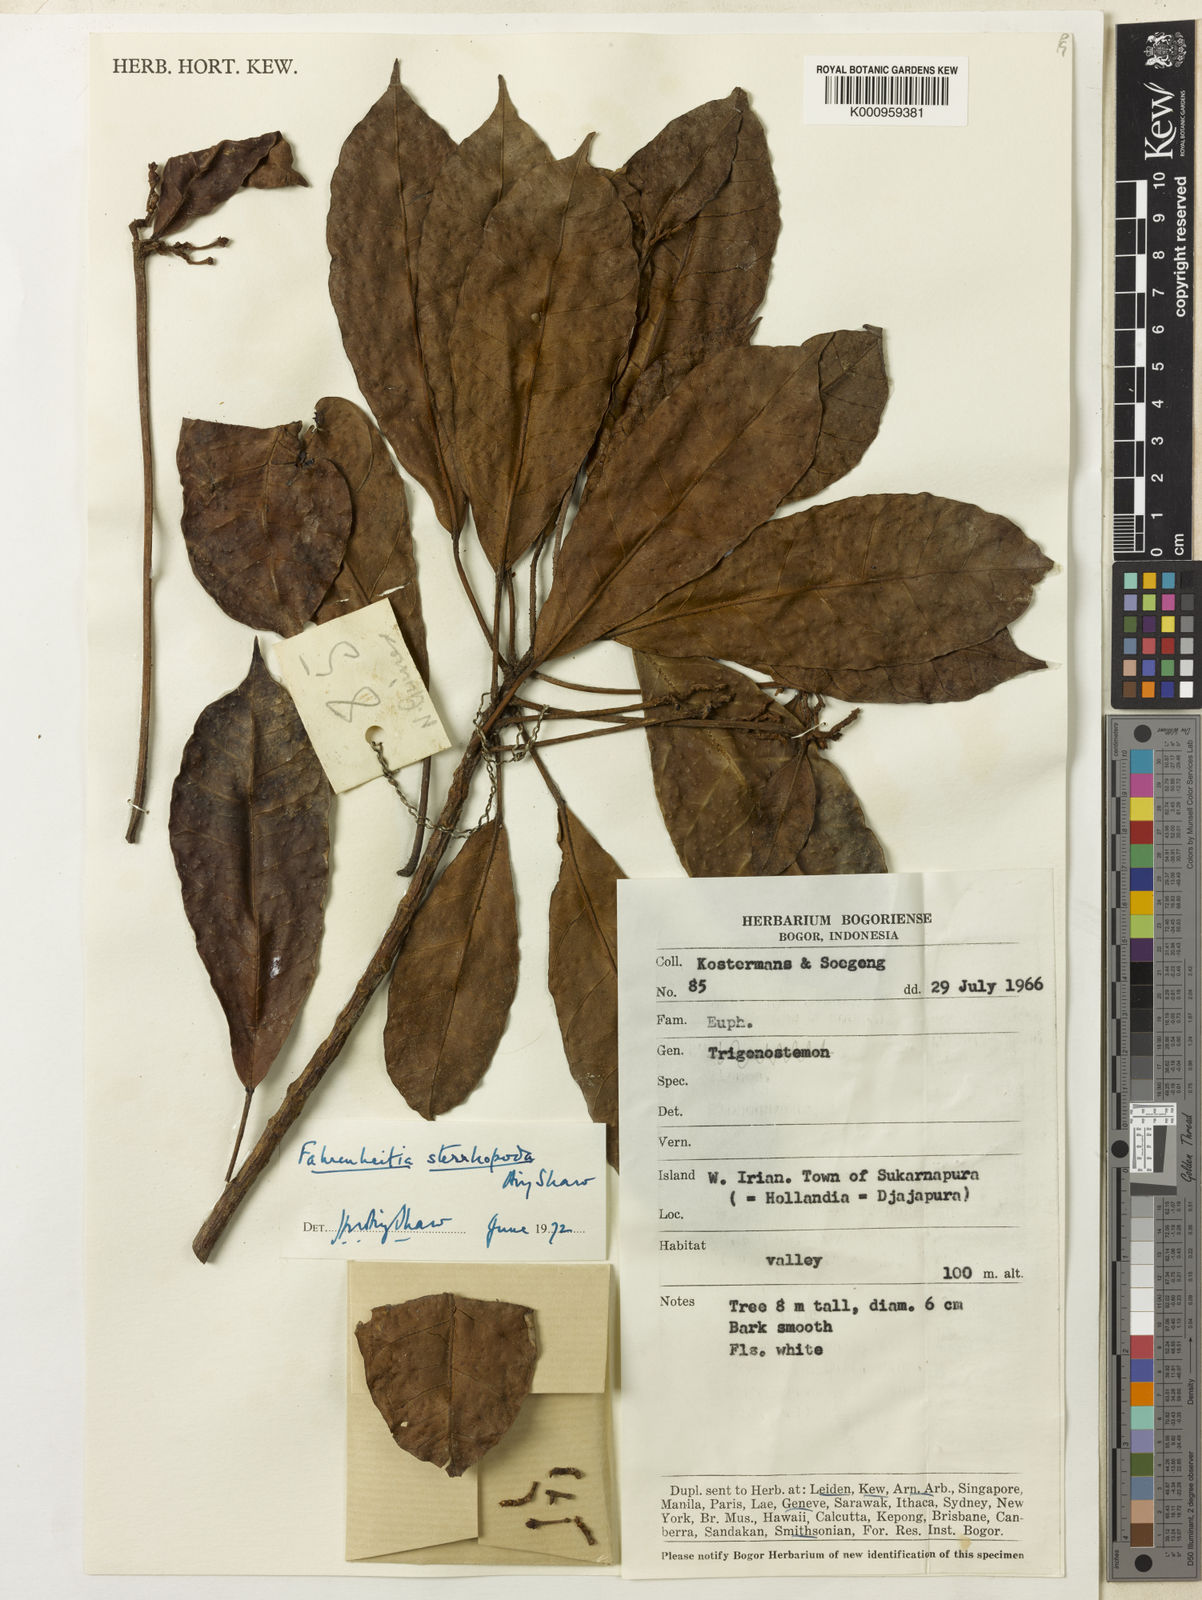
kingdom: Plantae
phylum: Tracheophyta
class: Magnoliopsida
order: Malpighiales
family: Euphorbiaceae
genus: Paracroton
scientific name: Paracroton sterrhopodus
